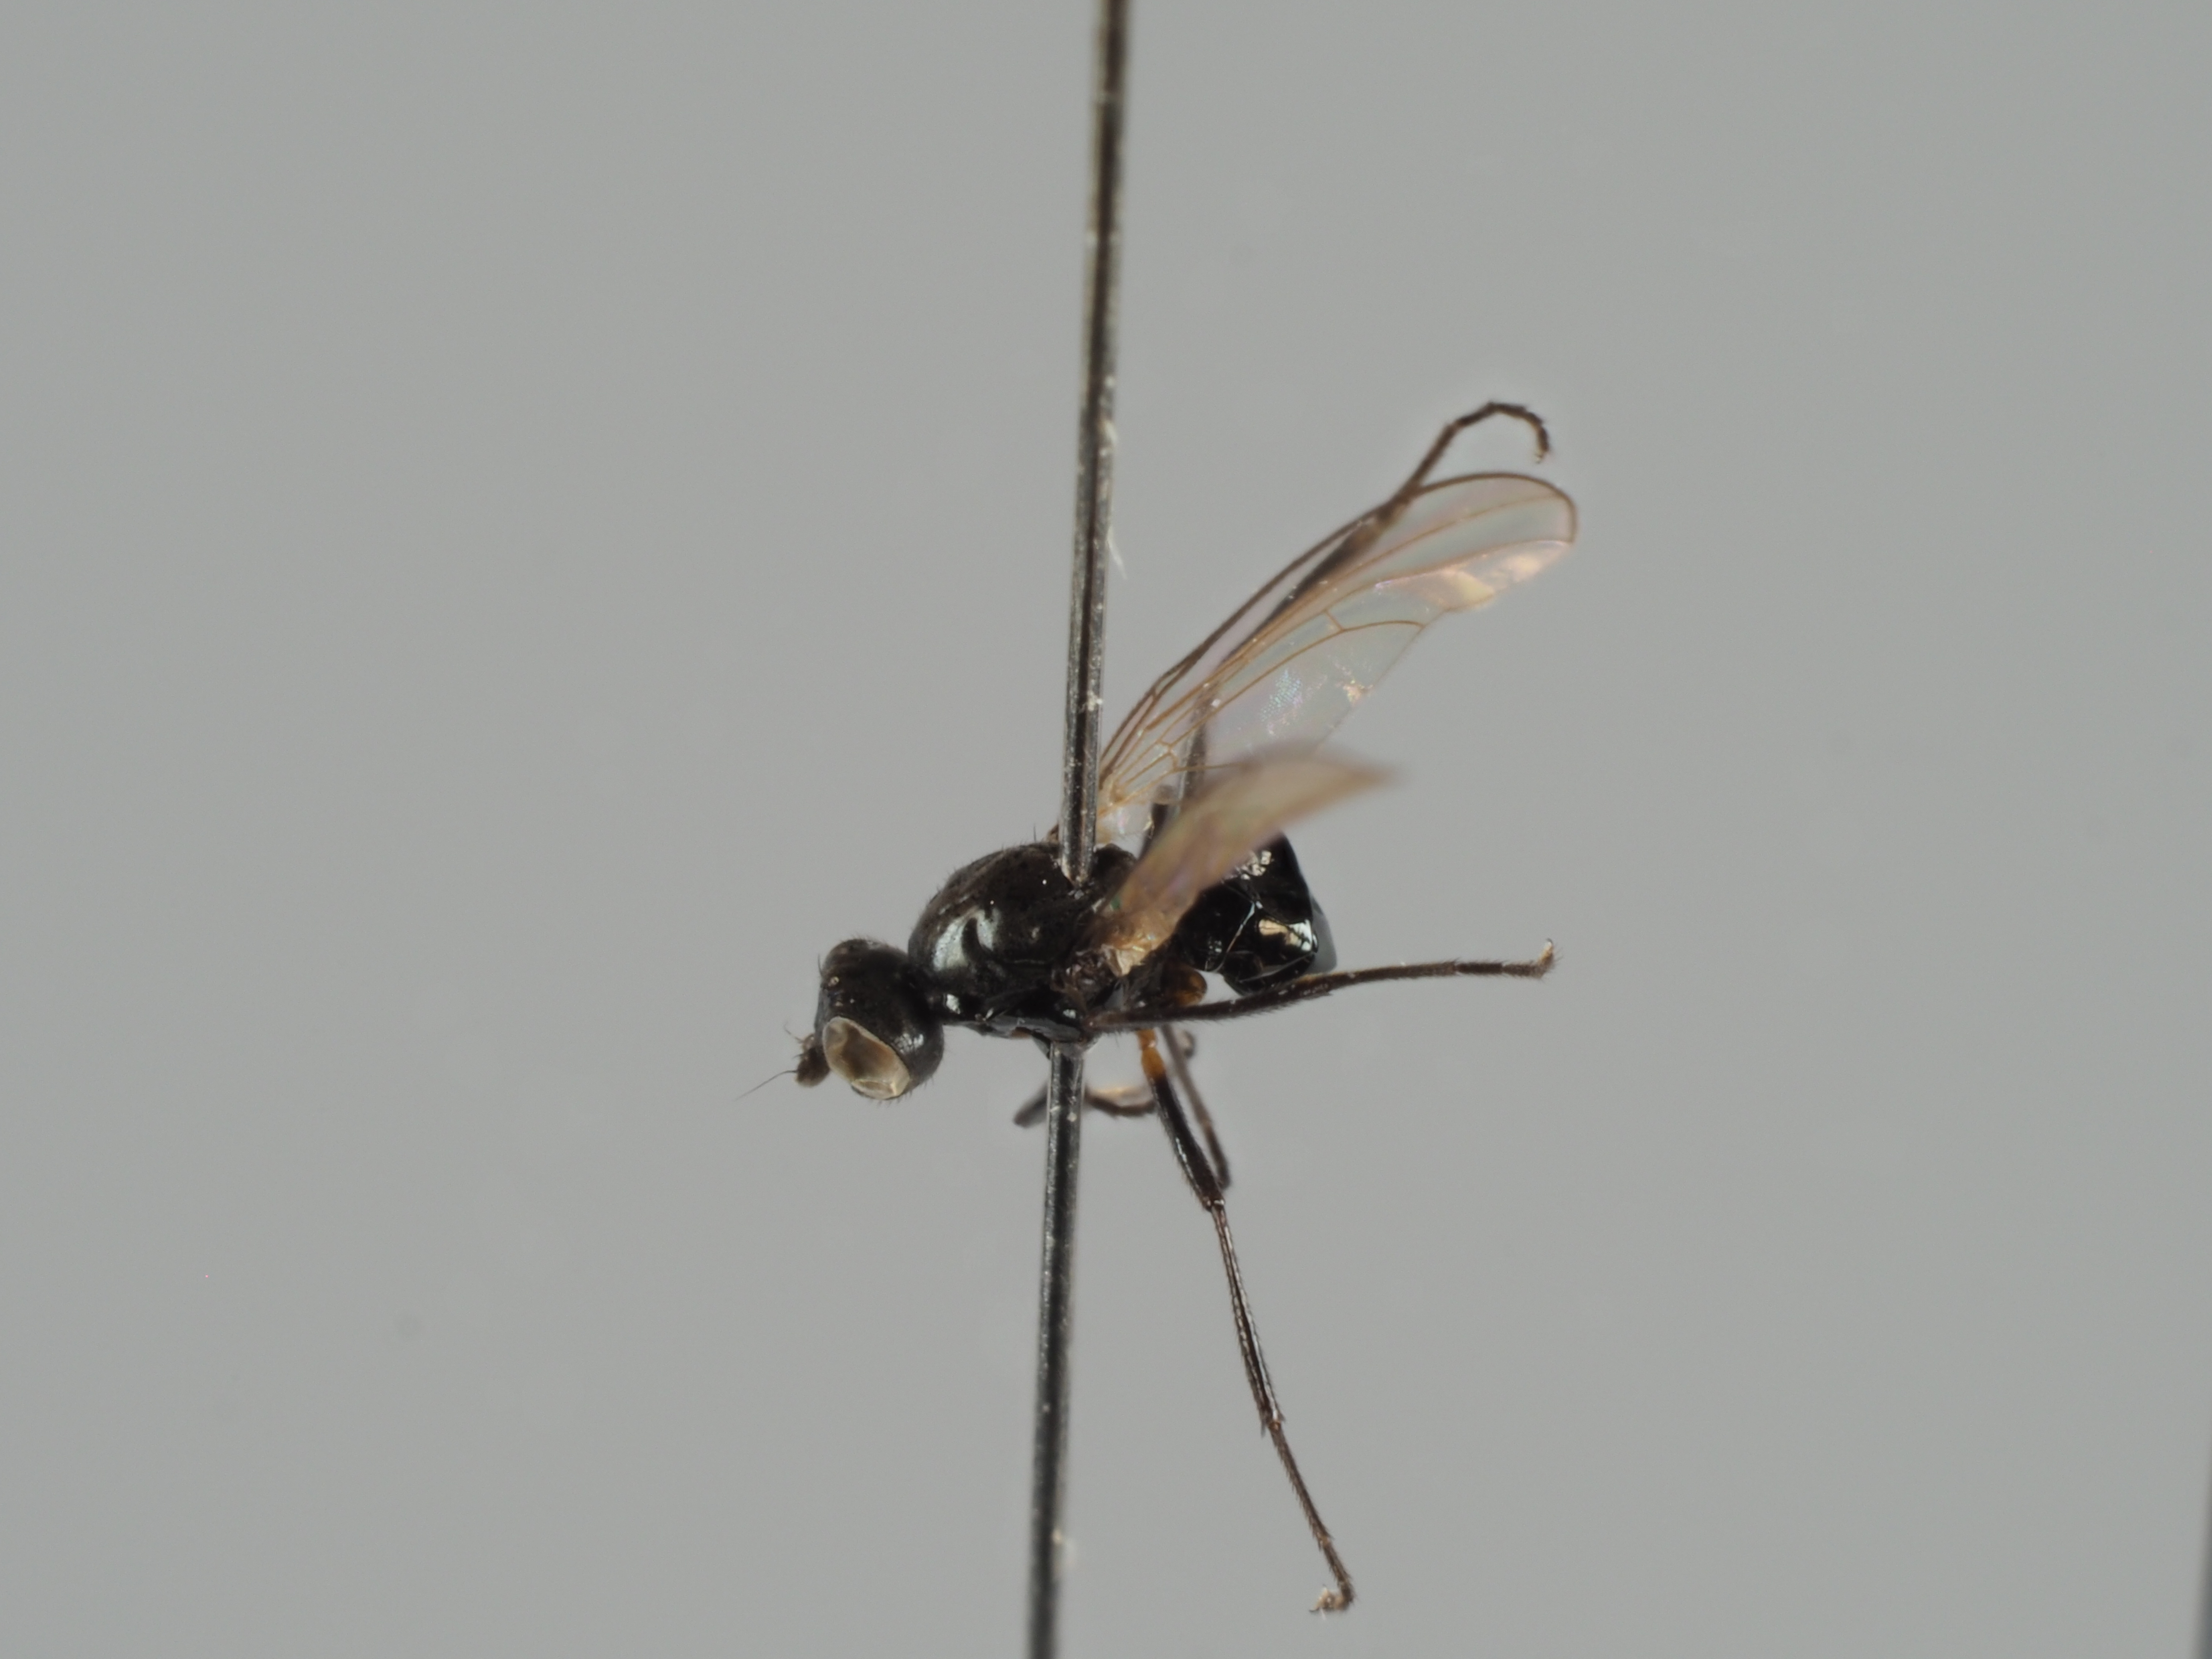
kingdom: Animalia
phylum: Arthropoda
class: Insecta
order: Diptera
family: Sepsidae
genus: Themira
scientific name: Themira paludosa
